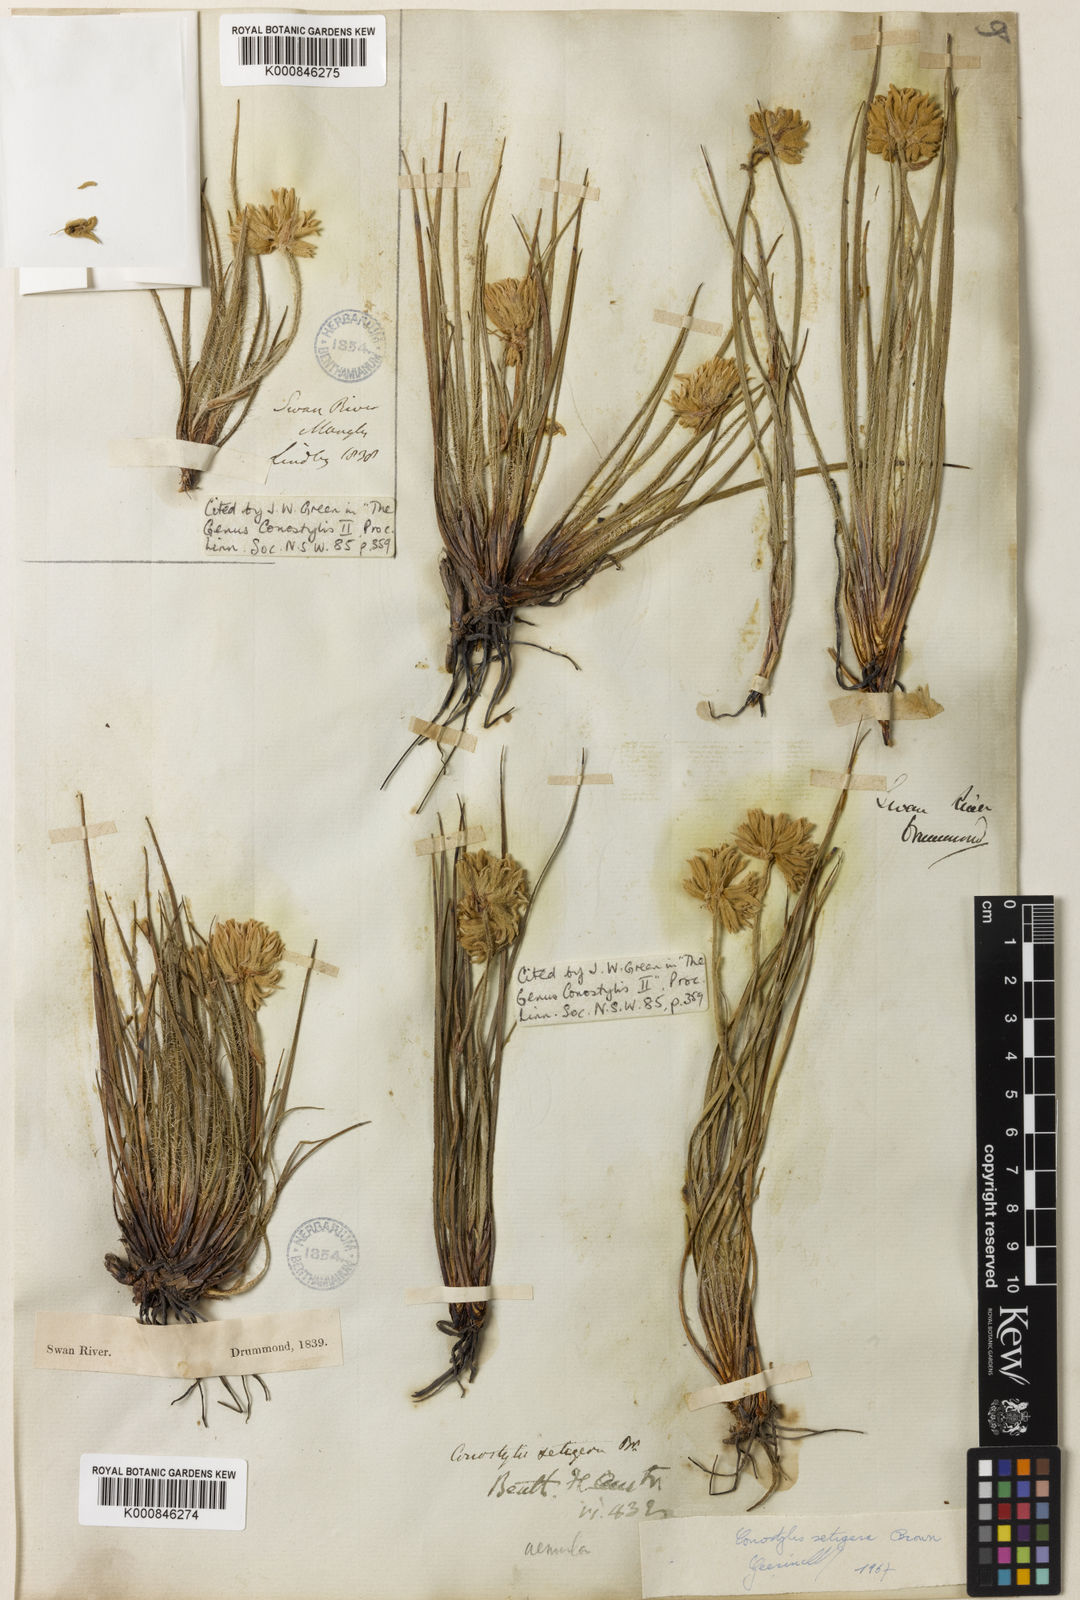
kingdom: Plantae
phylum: Tracheophyta
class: Liliopsida
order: Commelinales
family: Haemodoraceae
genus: Conostylis
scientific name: Conostylis setigera
